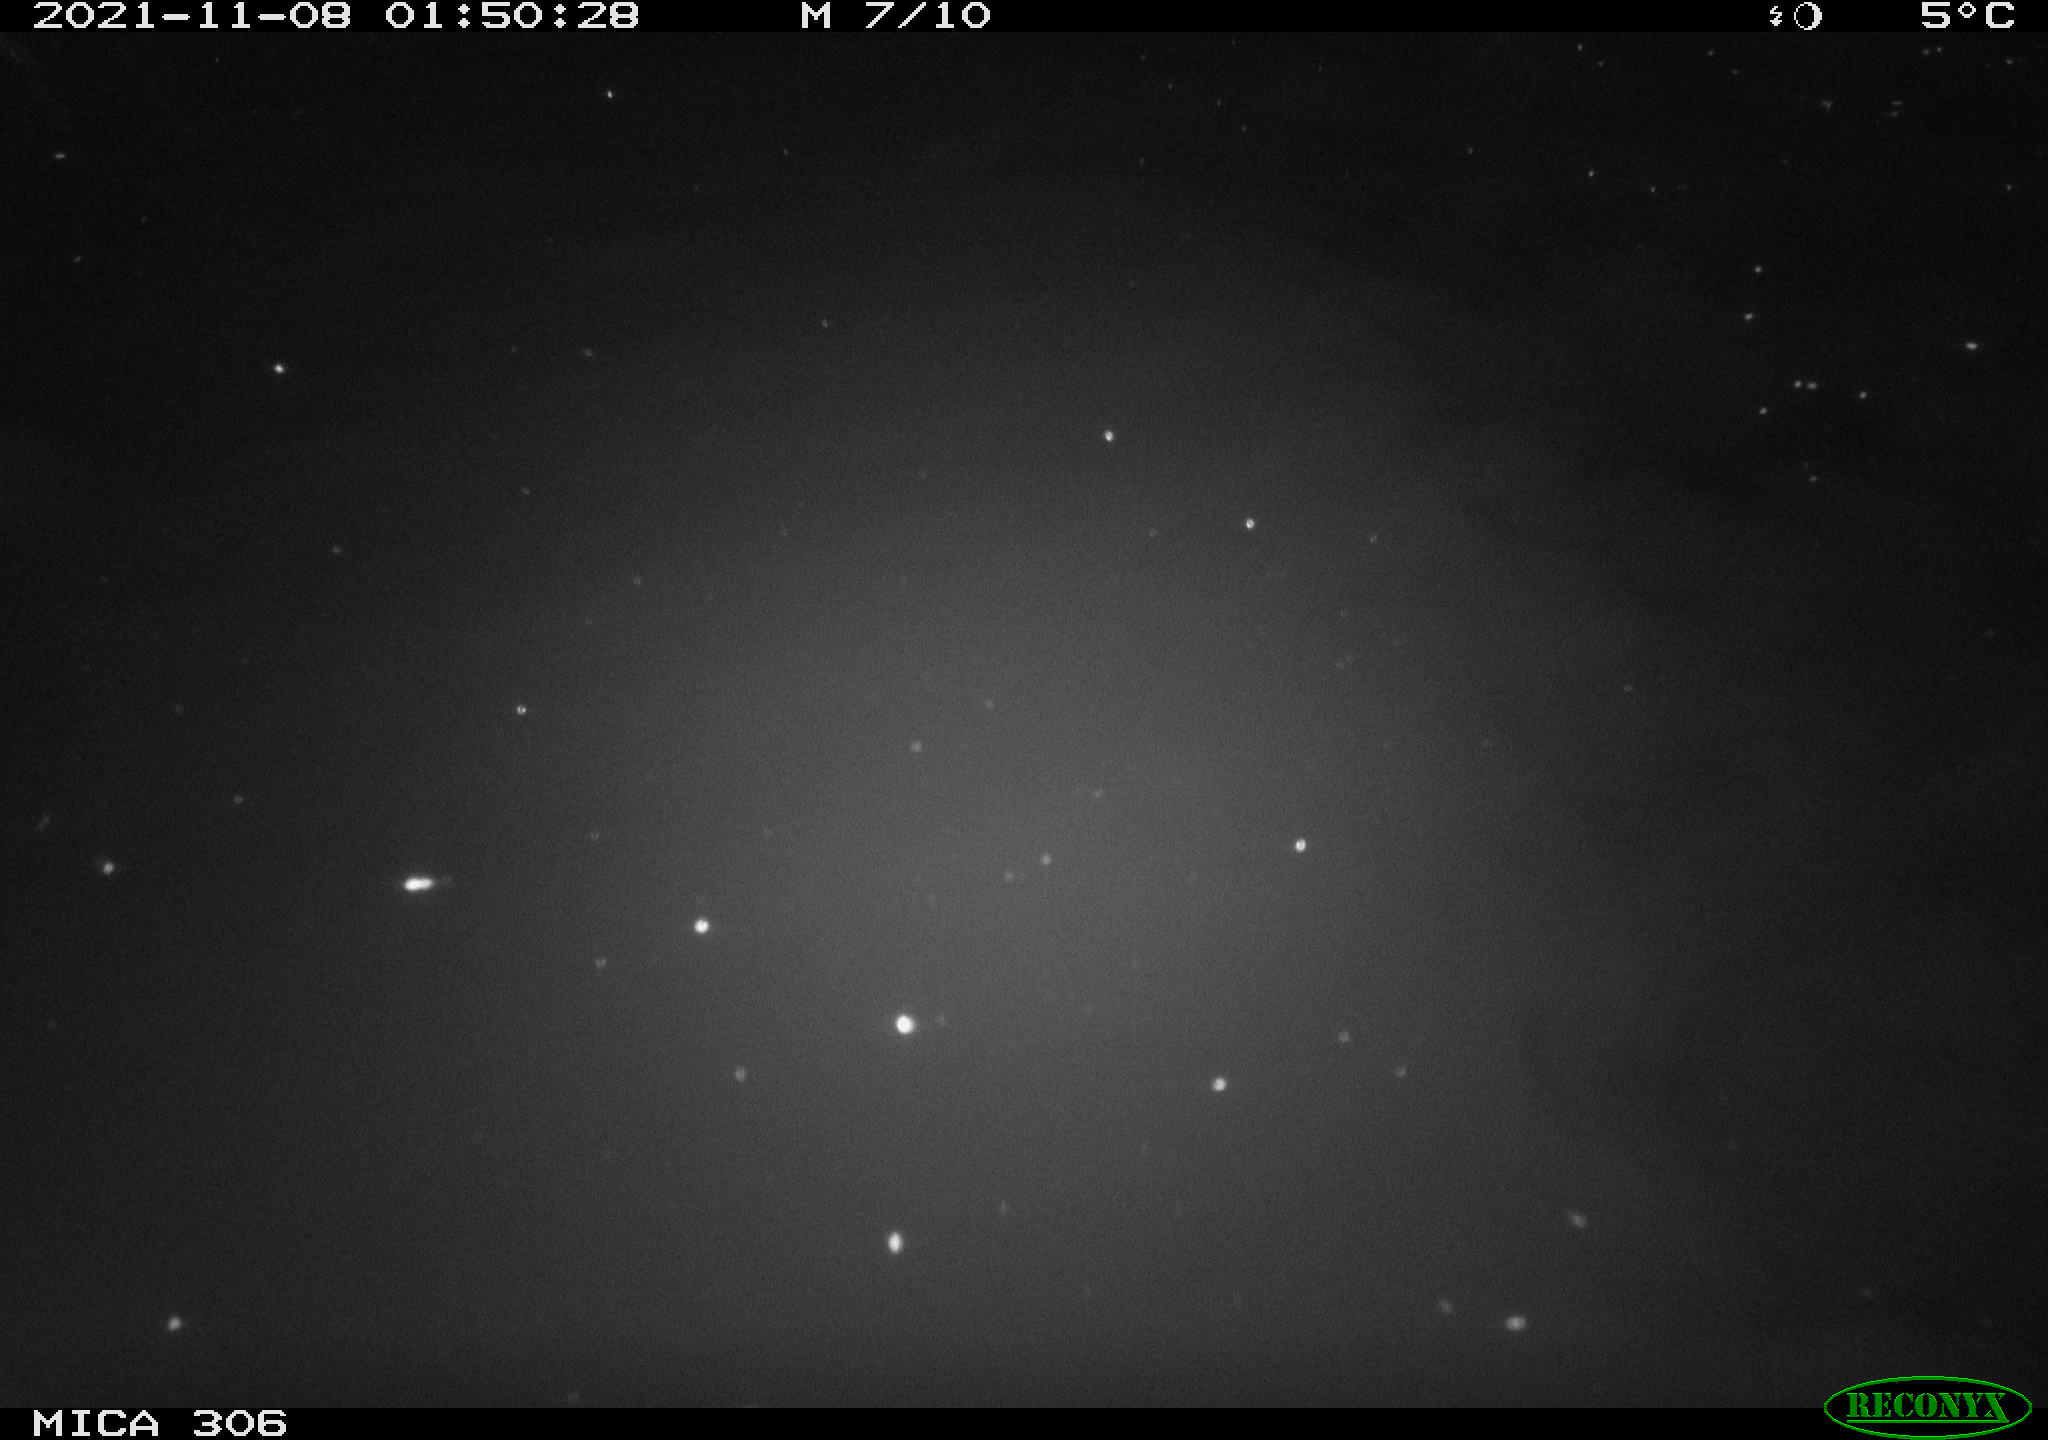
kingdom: Animalia
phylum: Chordata
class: Mammalia
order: Rodentia
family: Cricetidae
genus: Ondatra
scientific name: Ondatra zibethicus
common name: Muskrat
